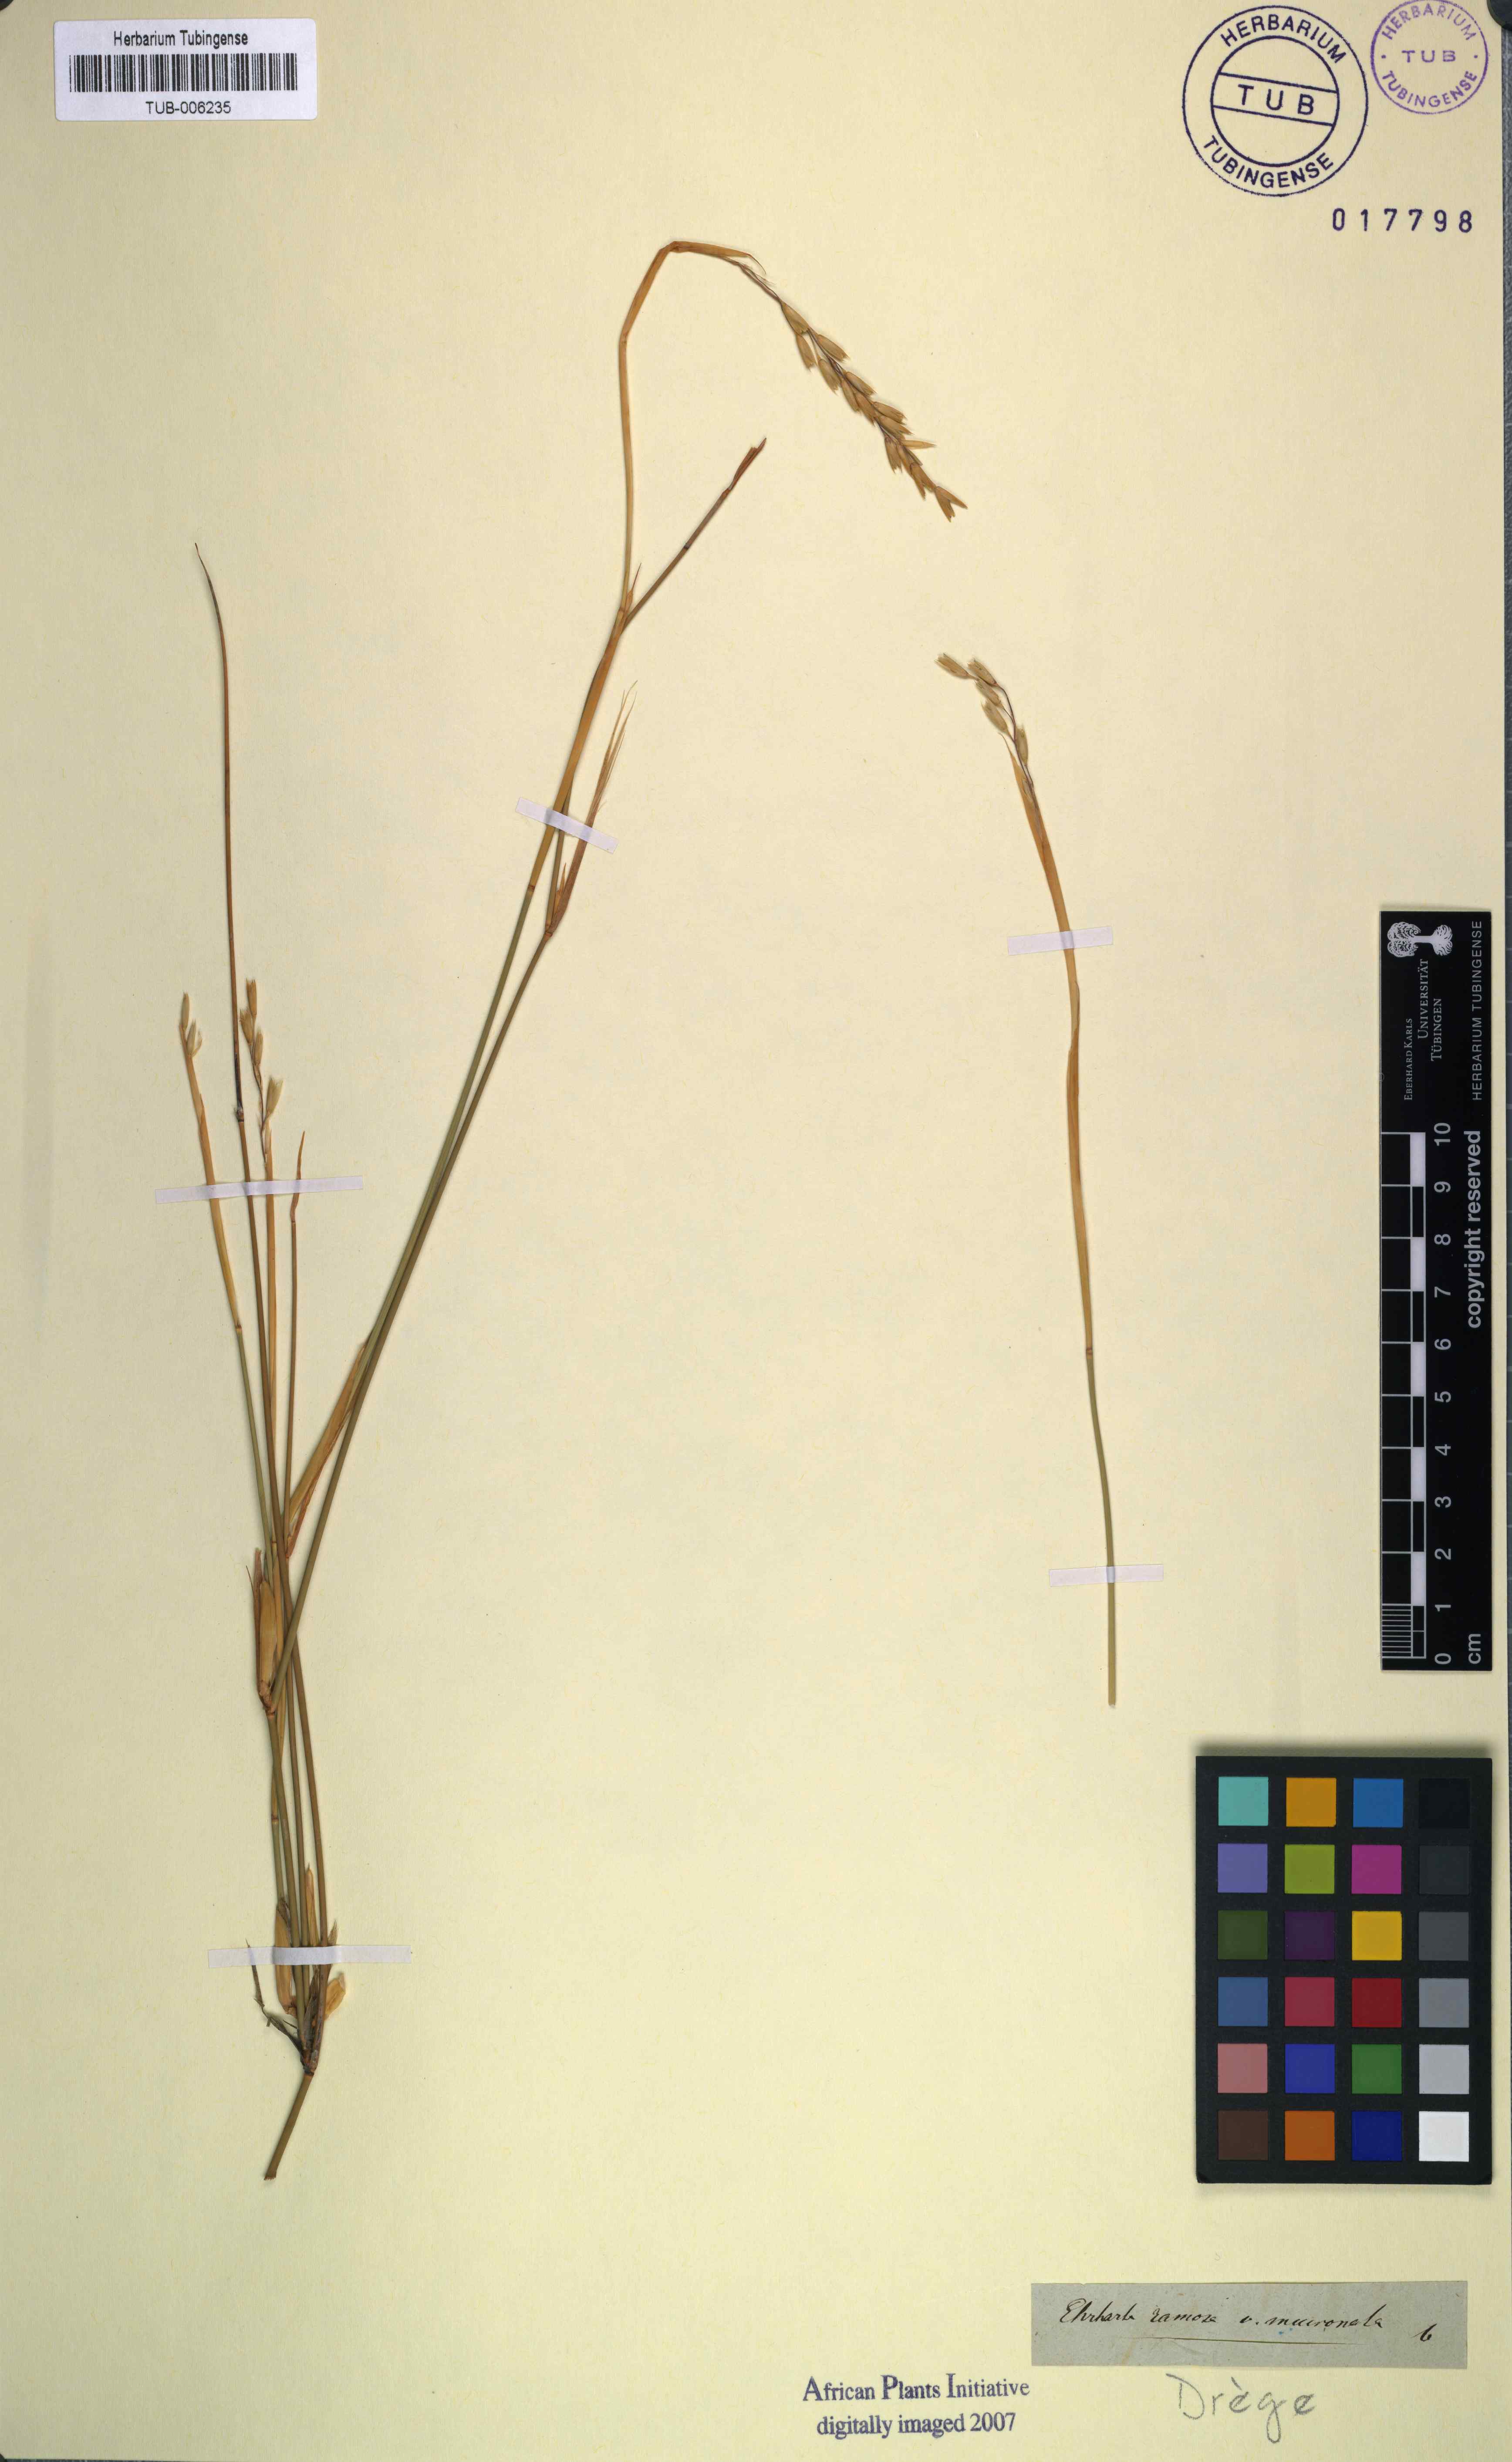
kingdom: Plantae
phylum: Tracheophyta
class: Liliopsida
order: Poales
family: Poaceae
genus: Ehrharta
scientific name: Ehrharta ramosa
